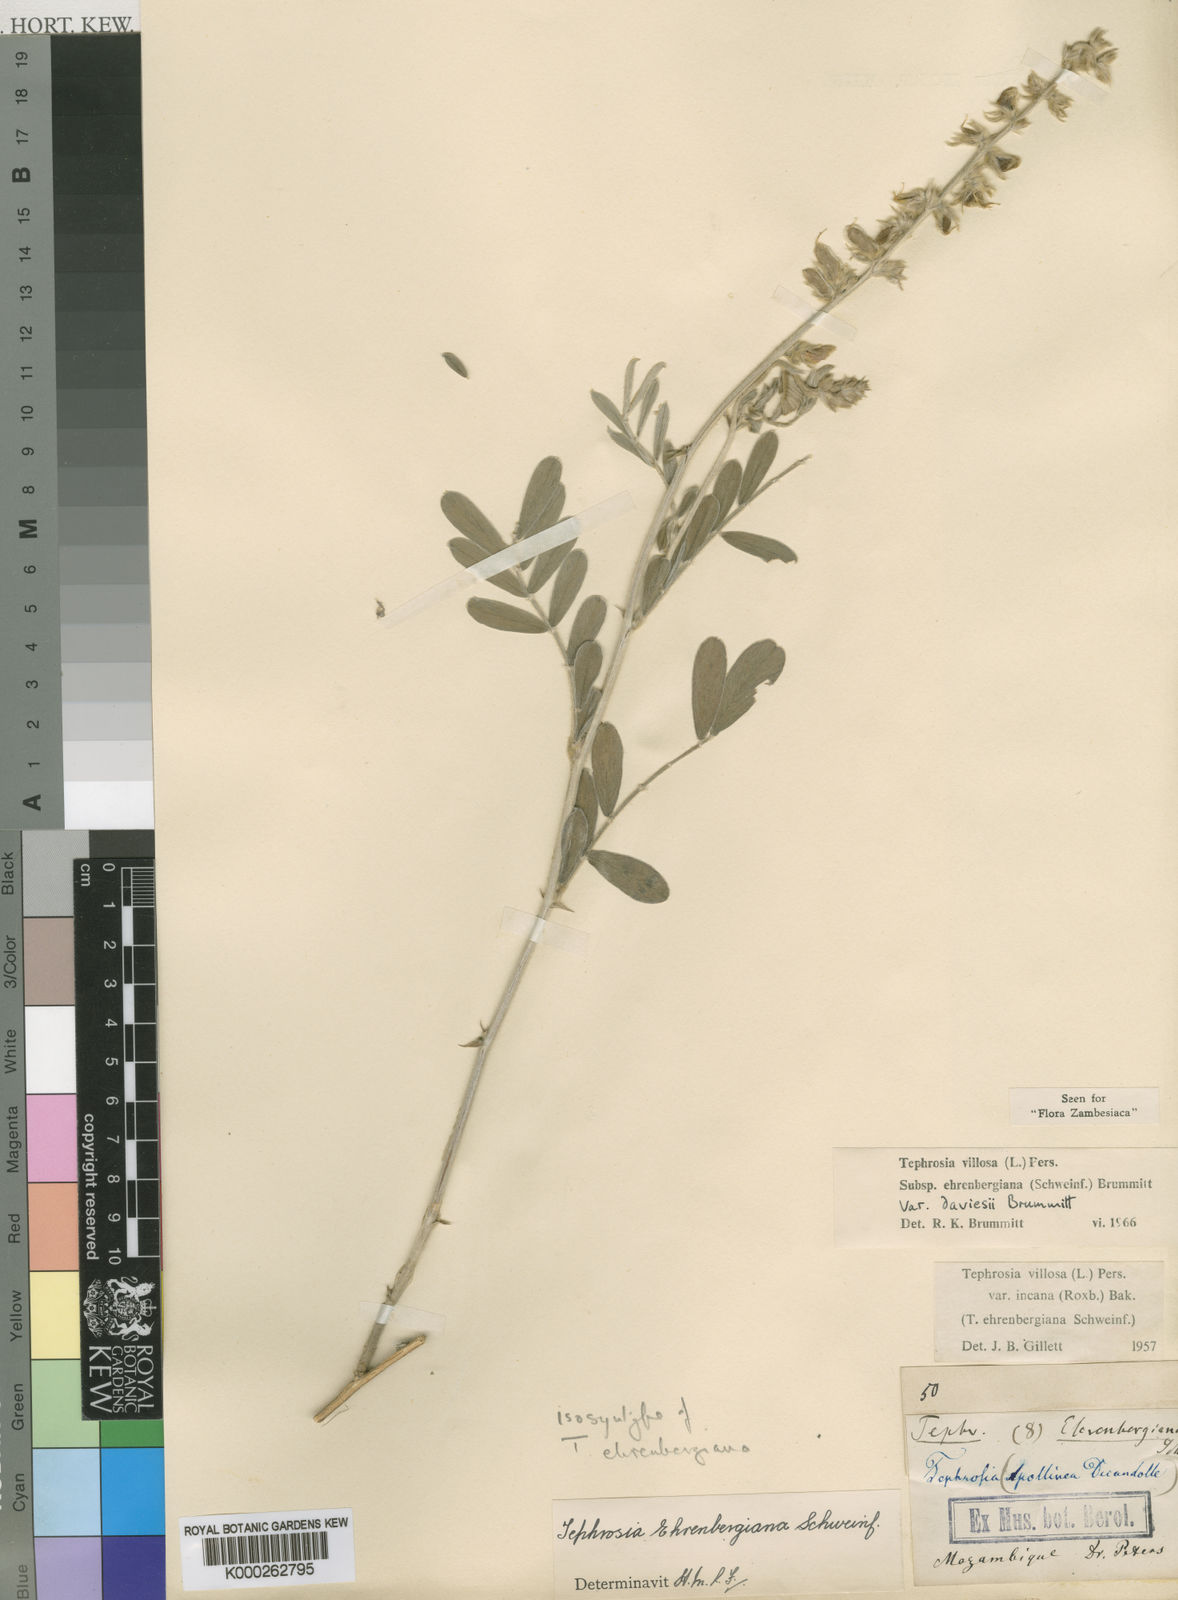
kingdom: Plantae
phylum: Tracheophyta
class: Magnoliopsida
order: Fabales
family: Fabaceae
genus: Tephrosia
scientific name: Tephrosia villosa
